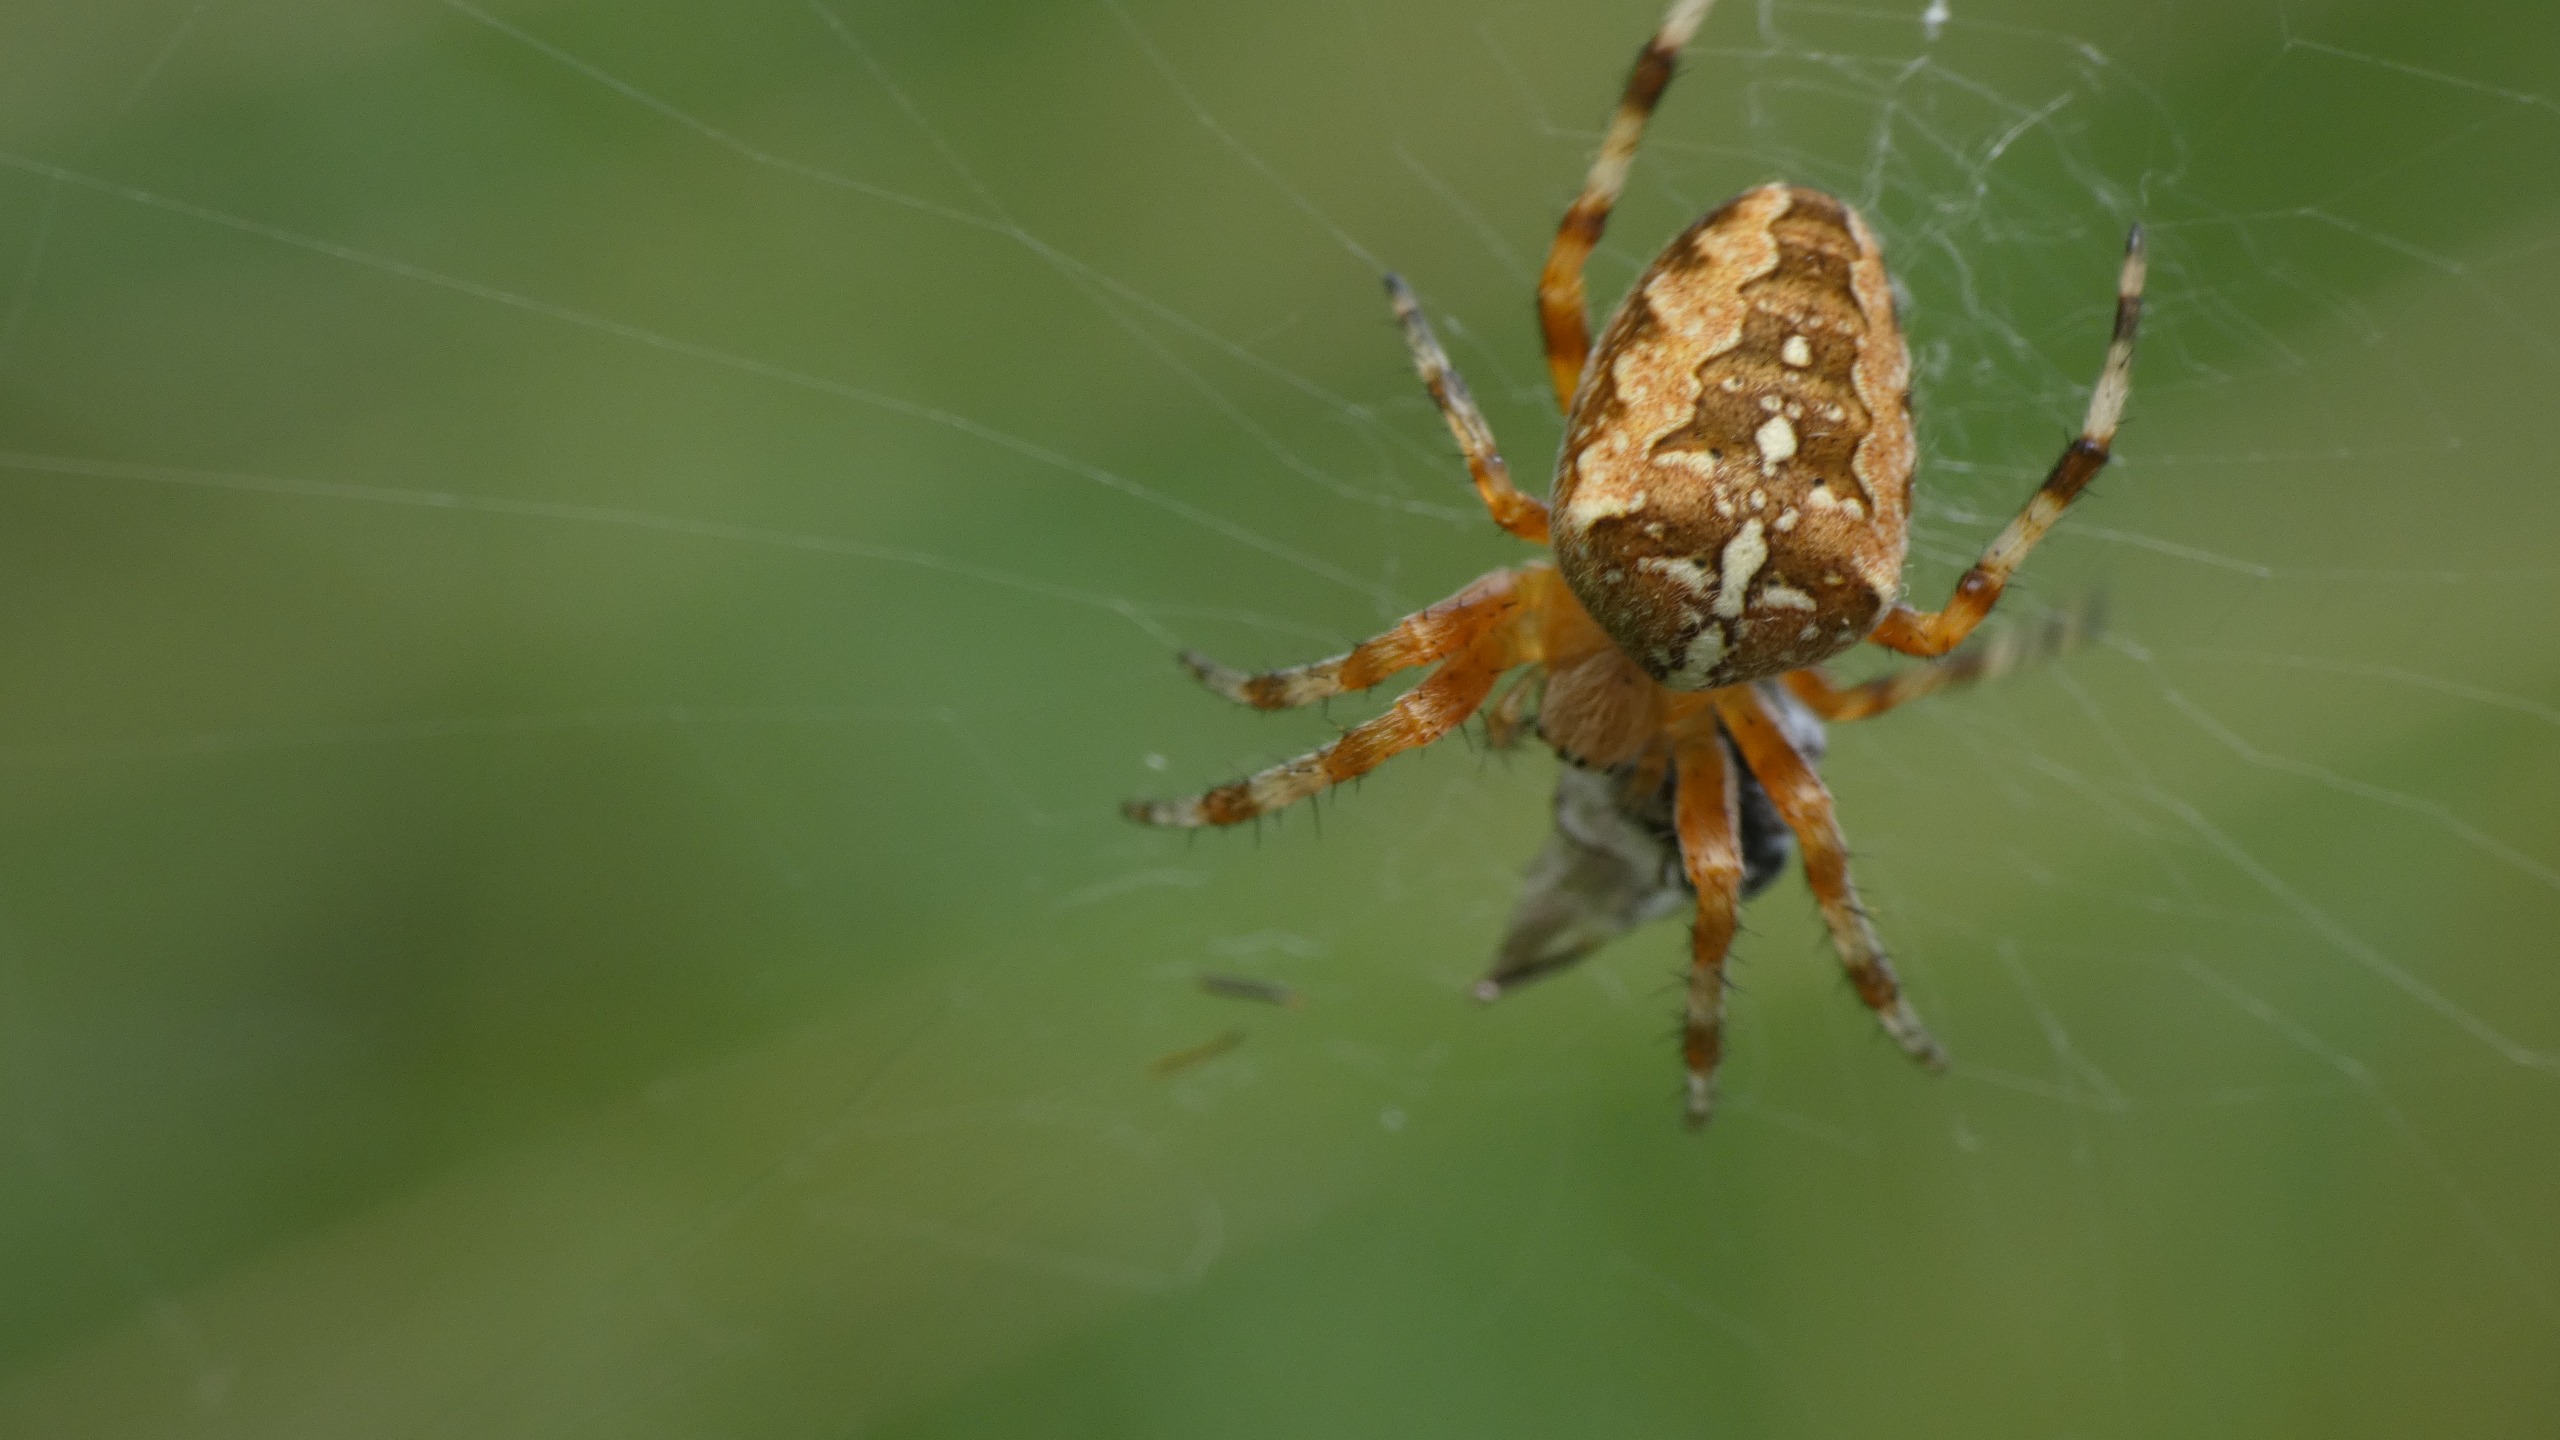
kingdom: Animalia
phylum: Arthropoda
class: Arachnida
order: Araneae
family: Araneidae
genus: Araneus
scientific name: Araneus diadematus
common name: Korsedderkop
